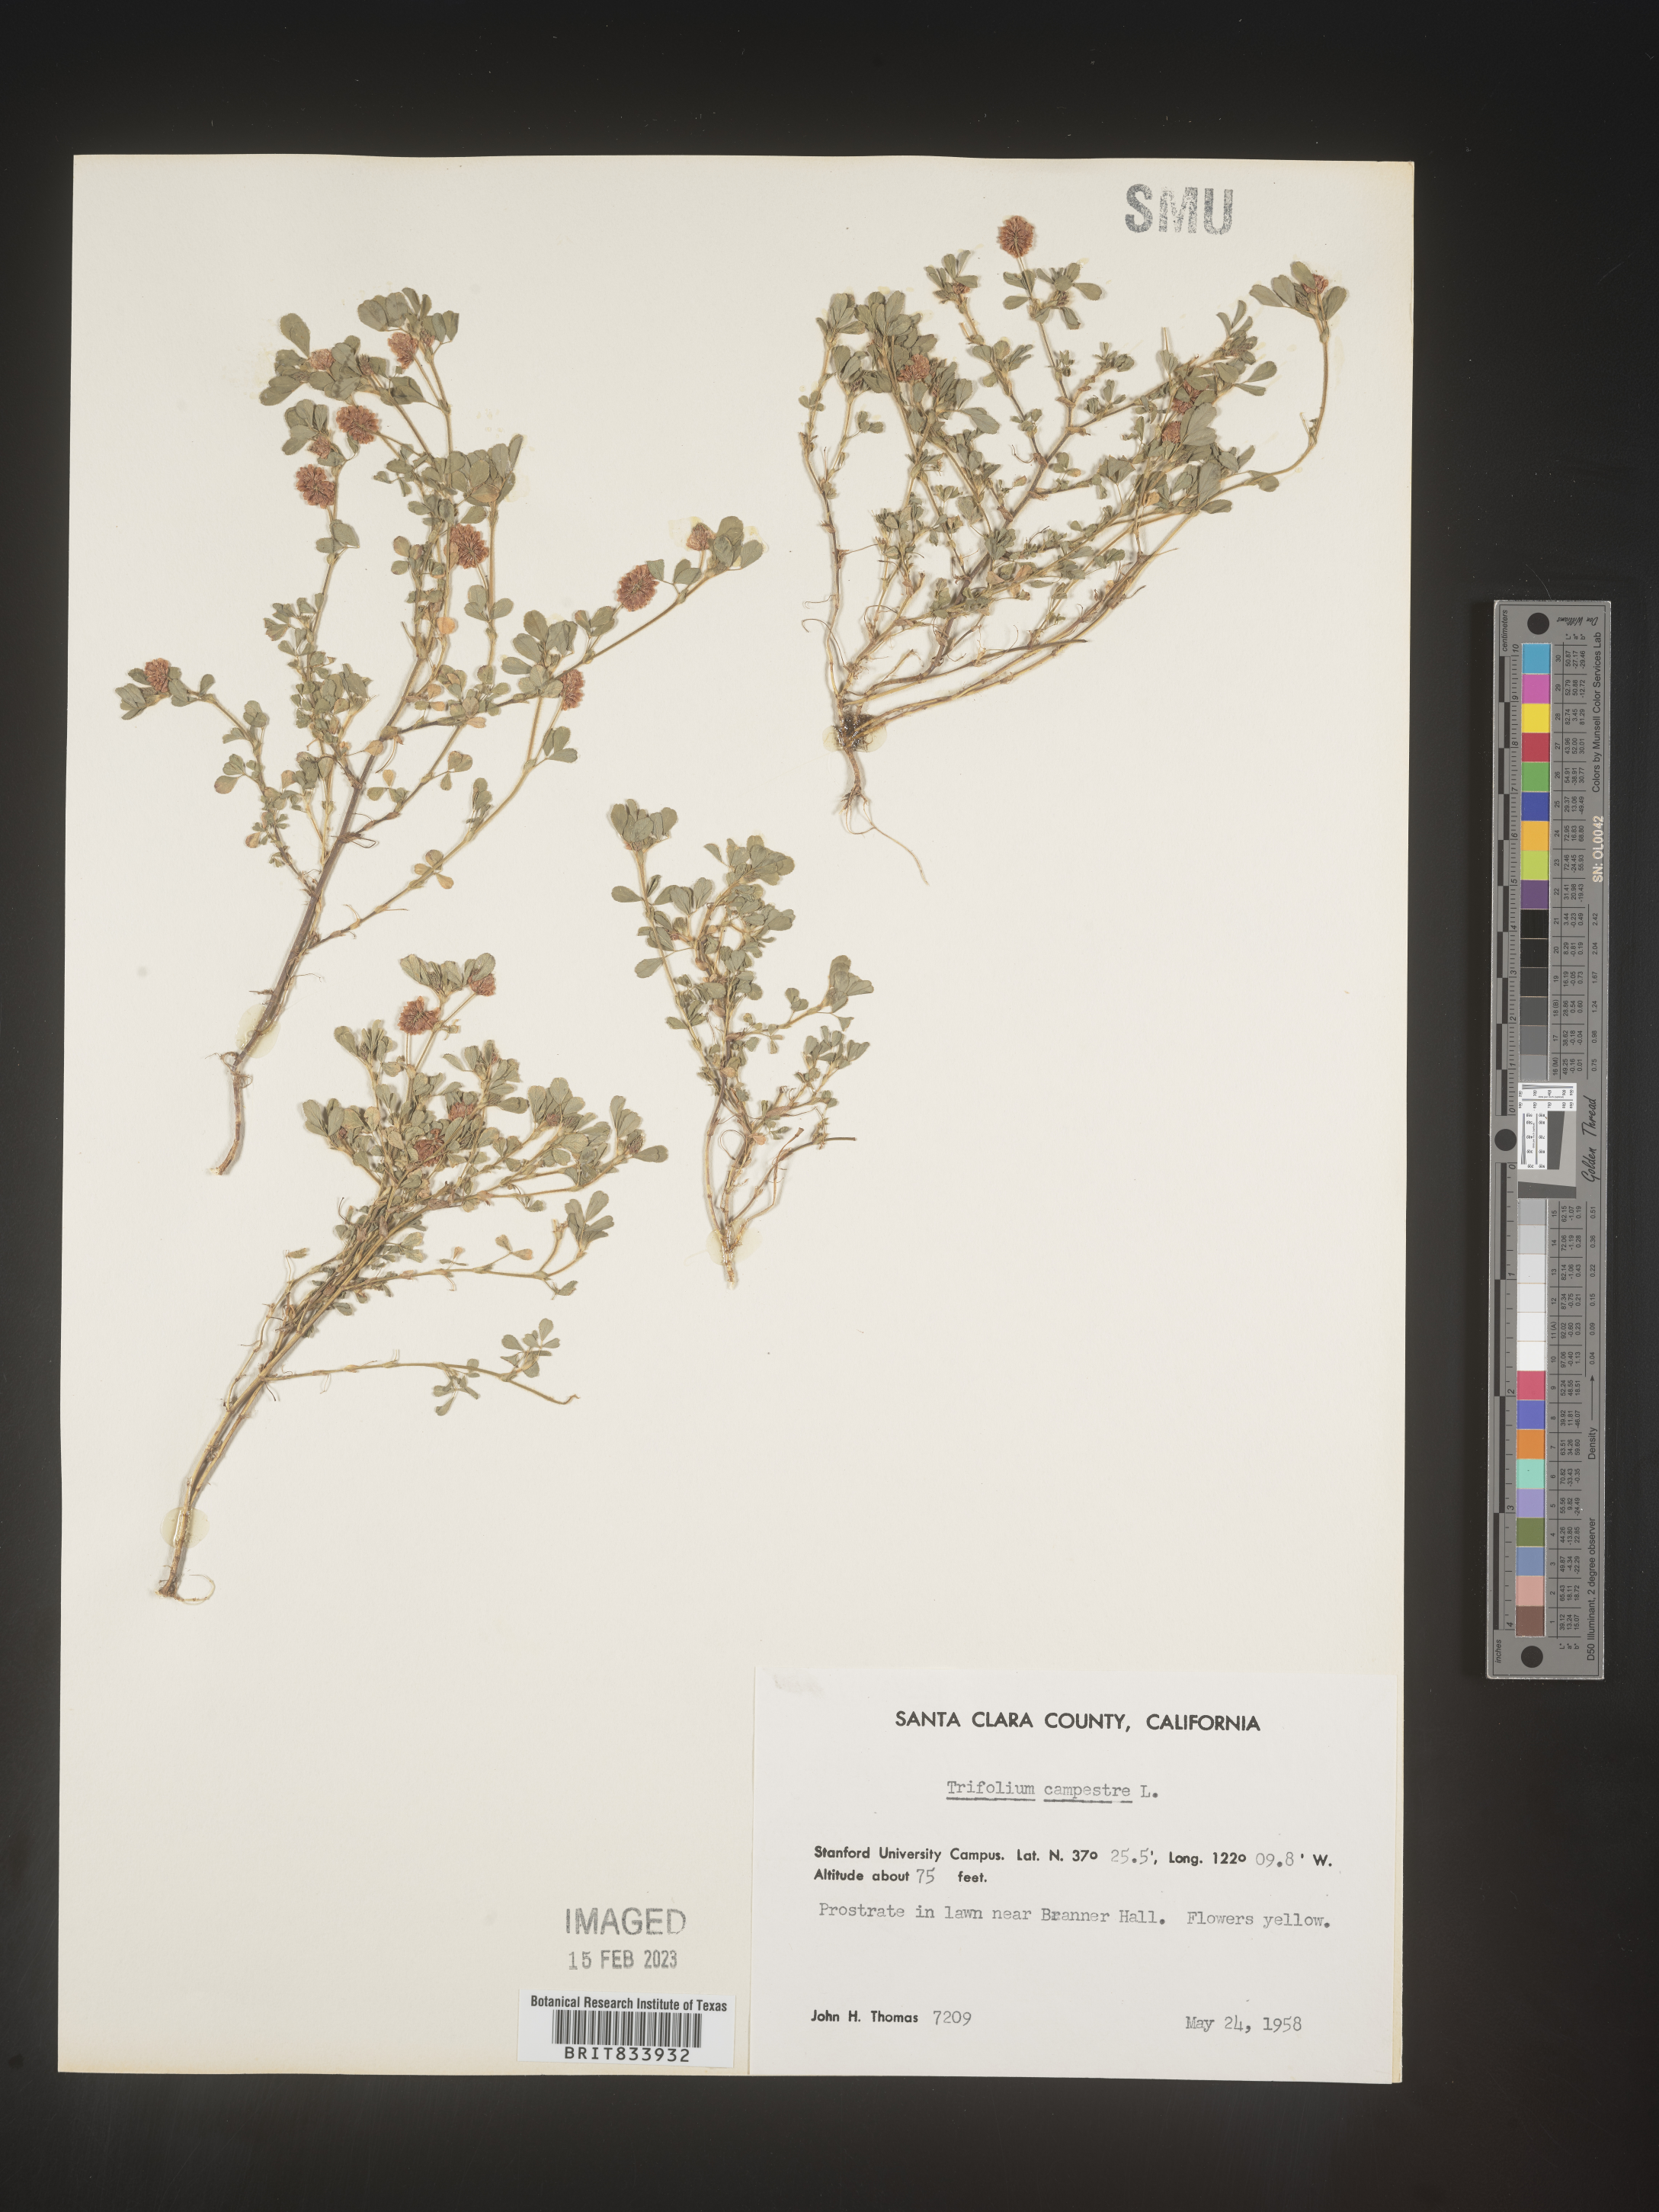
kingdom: Plantae
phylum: Tracheophyta
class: Magnoliopsida
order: Fabales
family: Fabaceae
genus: Trifolium
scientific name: Trifolium campestre
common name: Field clover
